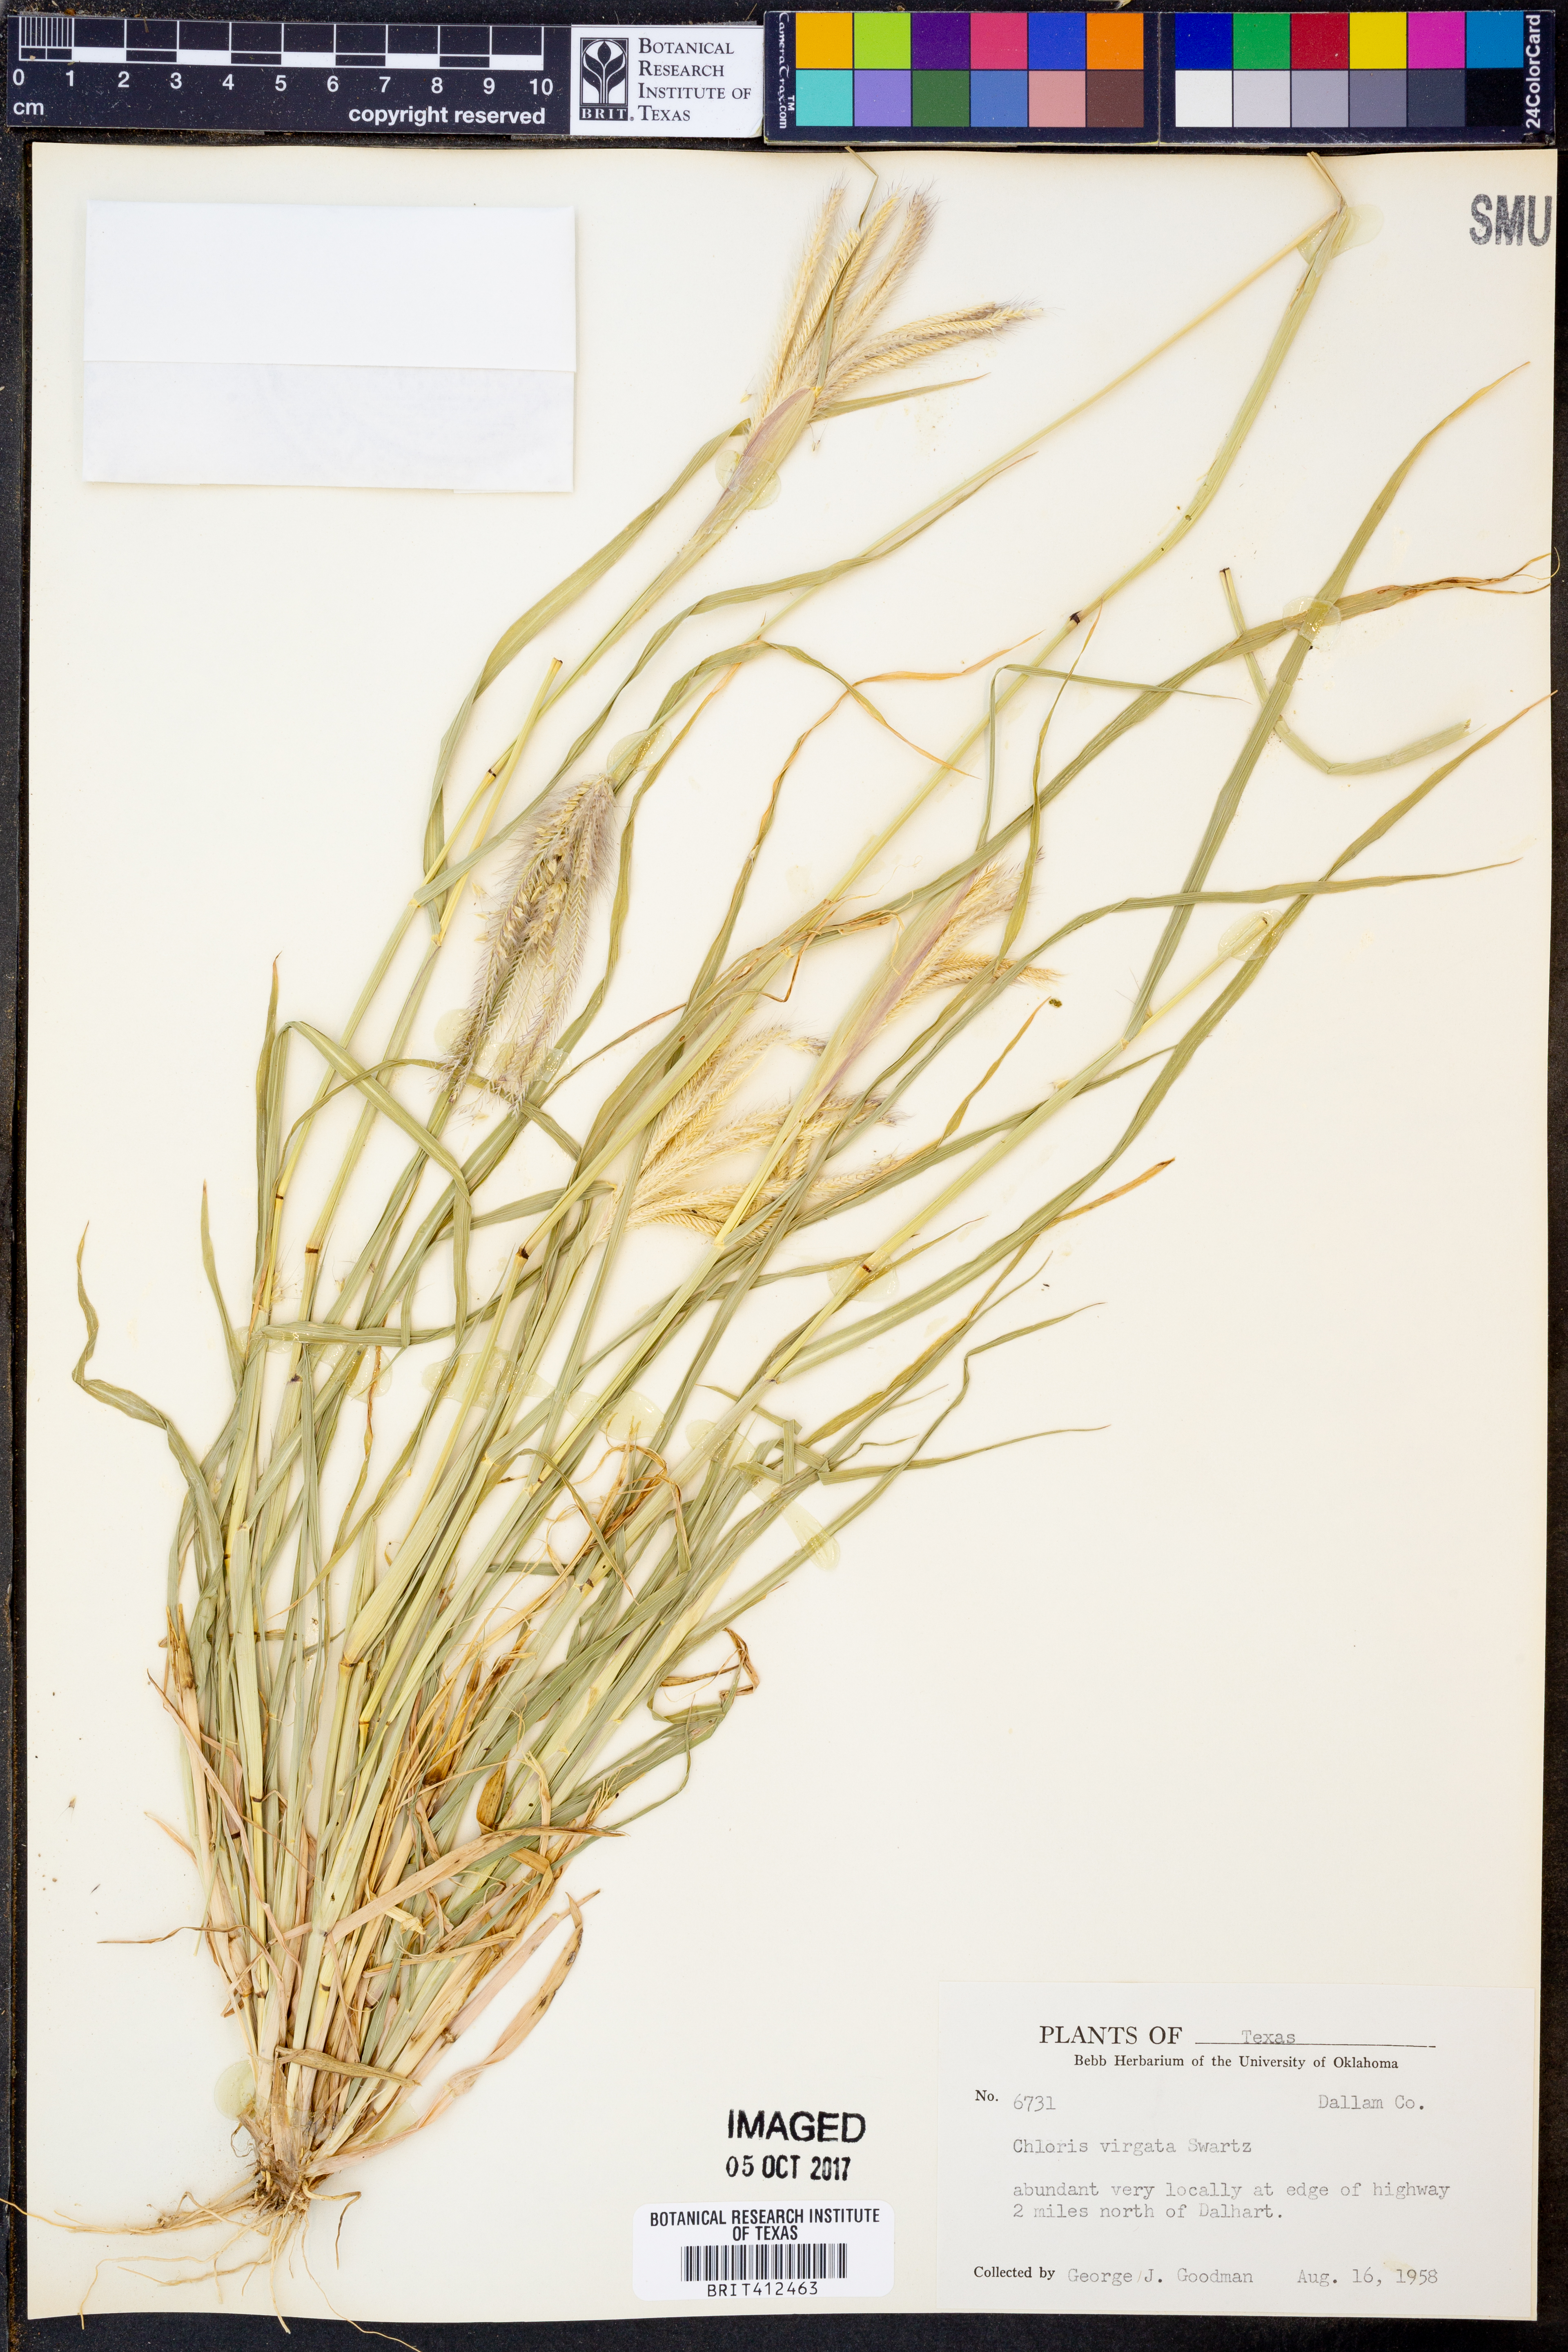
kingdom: Plantae
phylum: Tracheophyta
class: Liliopsida
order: Poales
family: Poaceae
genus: Chloris
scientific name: Chloris virgata
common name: Feathery rhodes-grass
